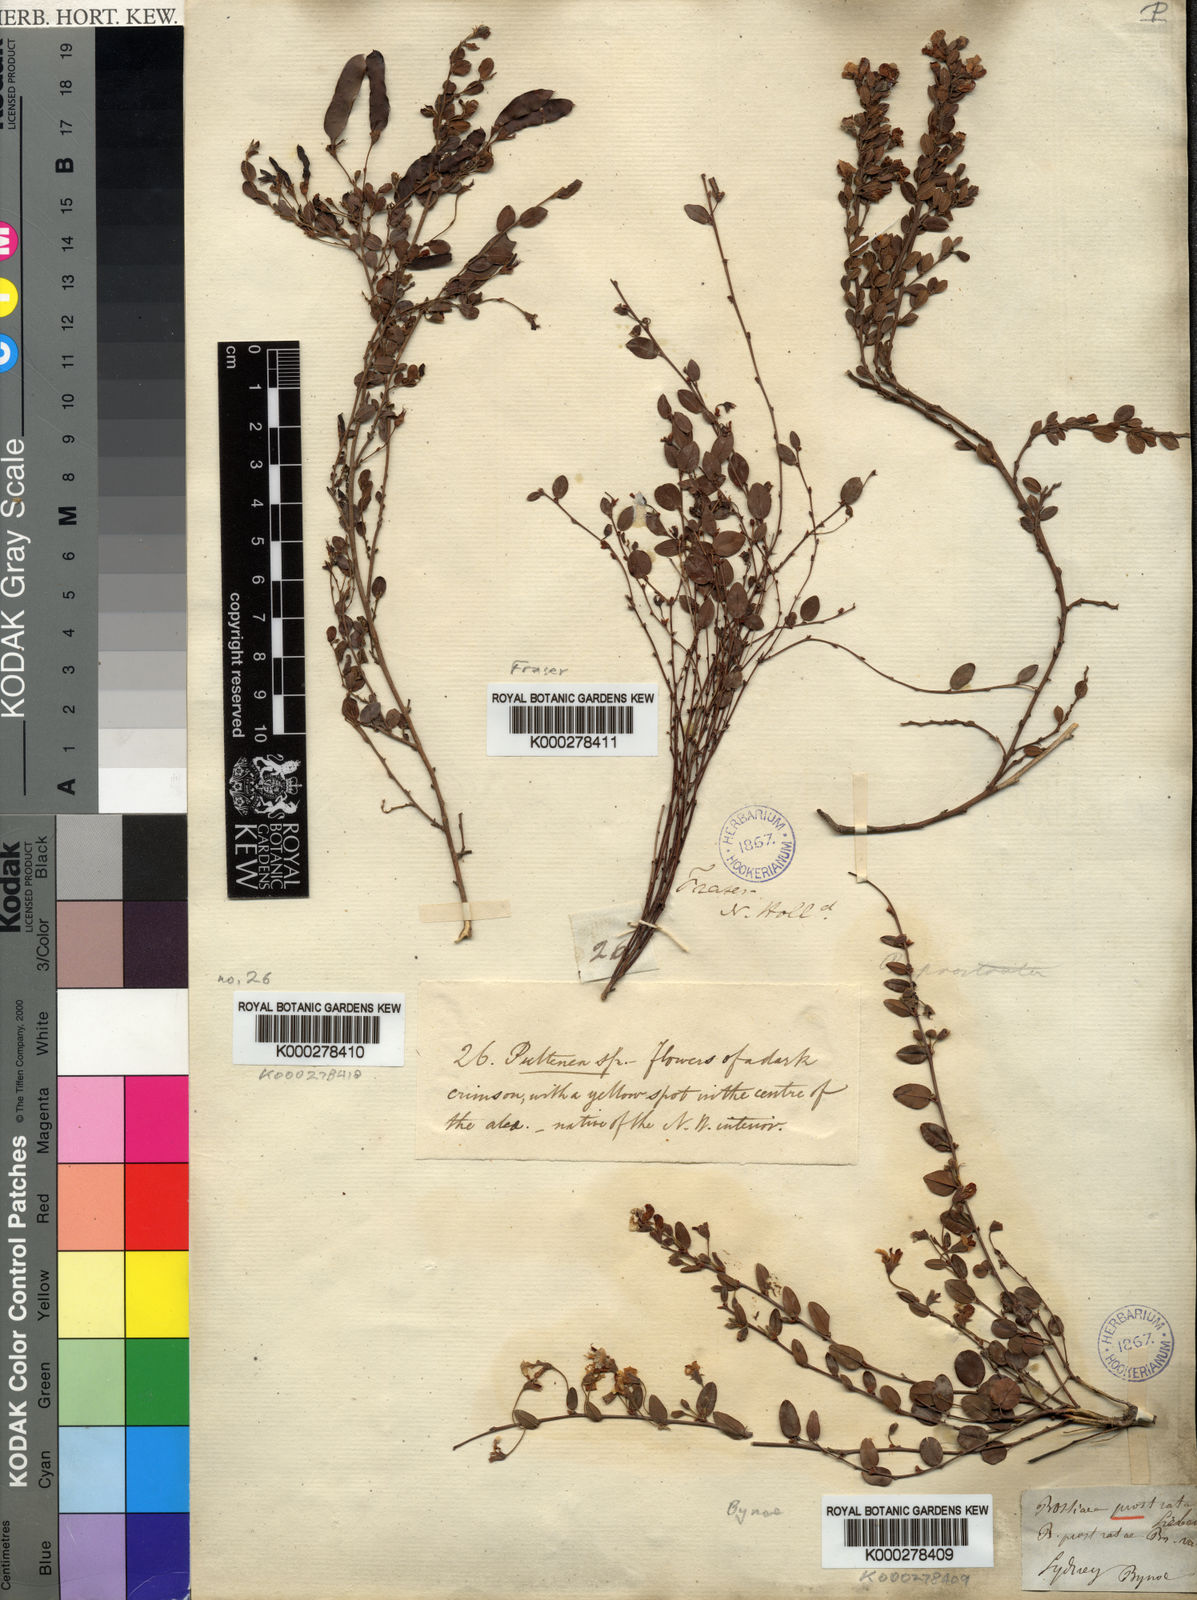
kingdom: Plantae
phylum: Tracheophyta
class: Magnoliopsida
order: Fabales
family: Fabaceae
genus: Bossiaea
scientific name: Bossiaea prostrata
